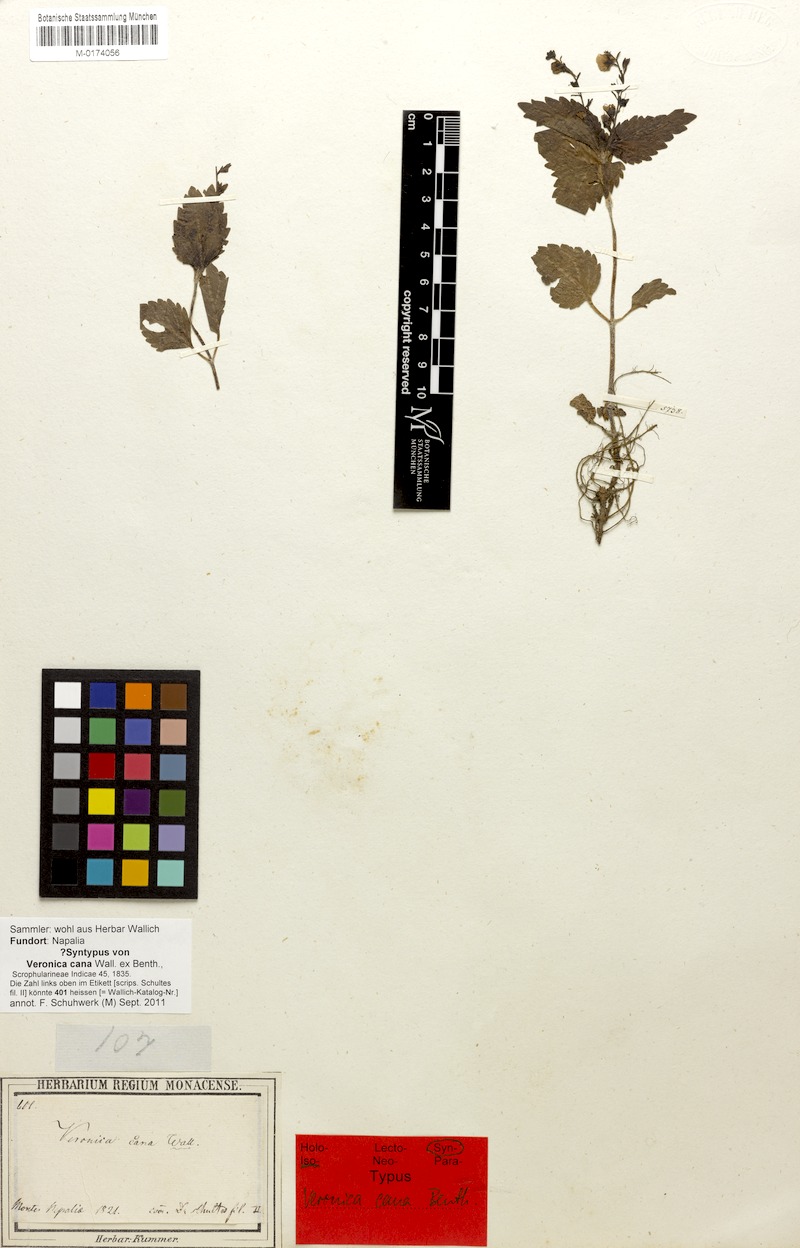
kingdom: Plantae
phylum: Tracheophyta
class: Magnoliopsida
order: Lamiales
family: Plantaginaceae
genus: Veronica
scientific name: Veronica cana
